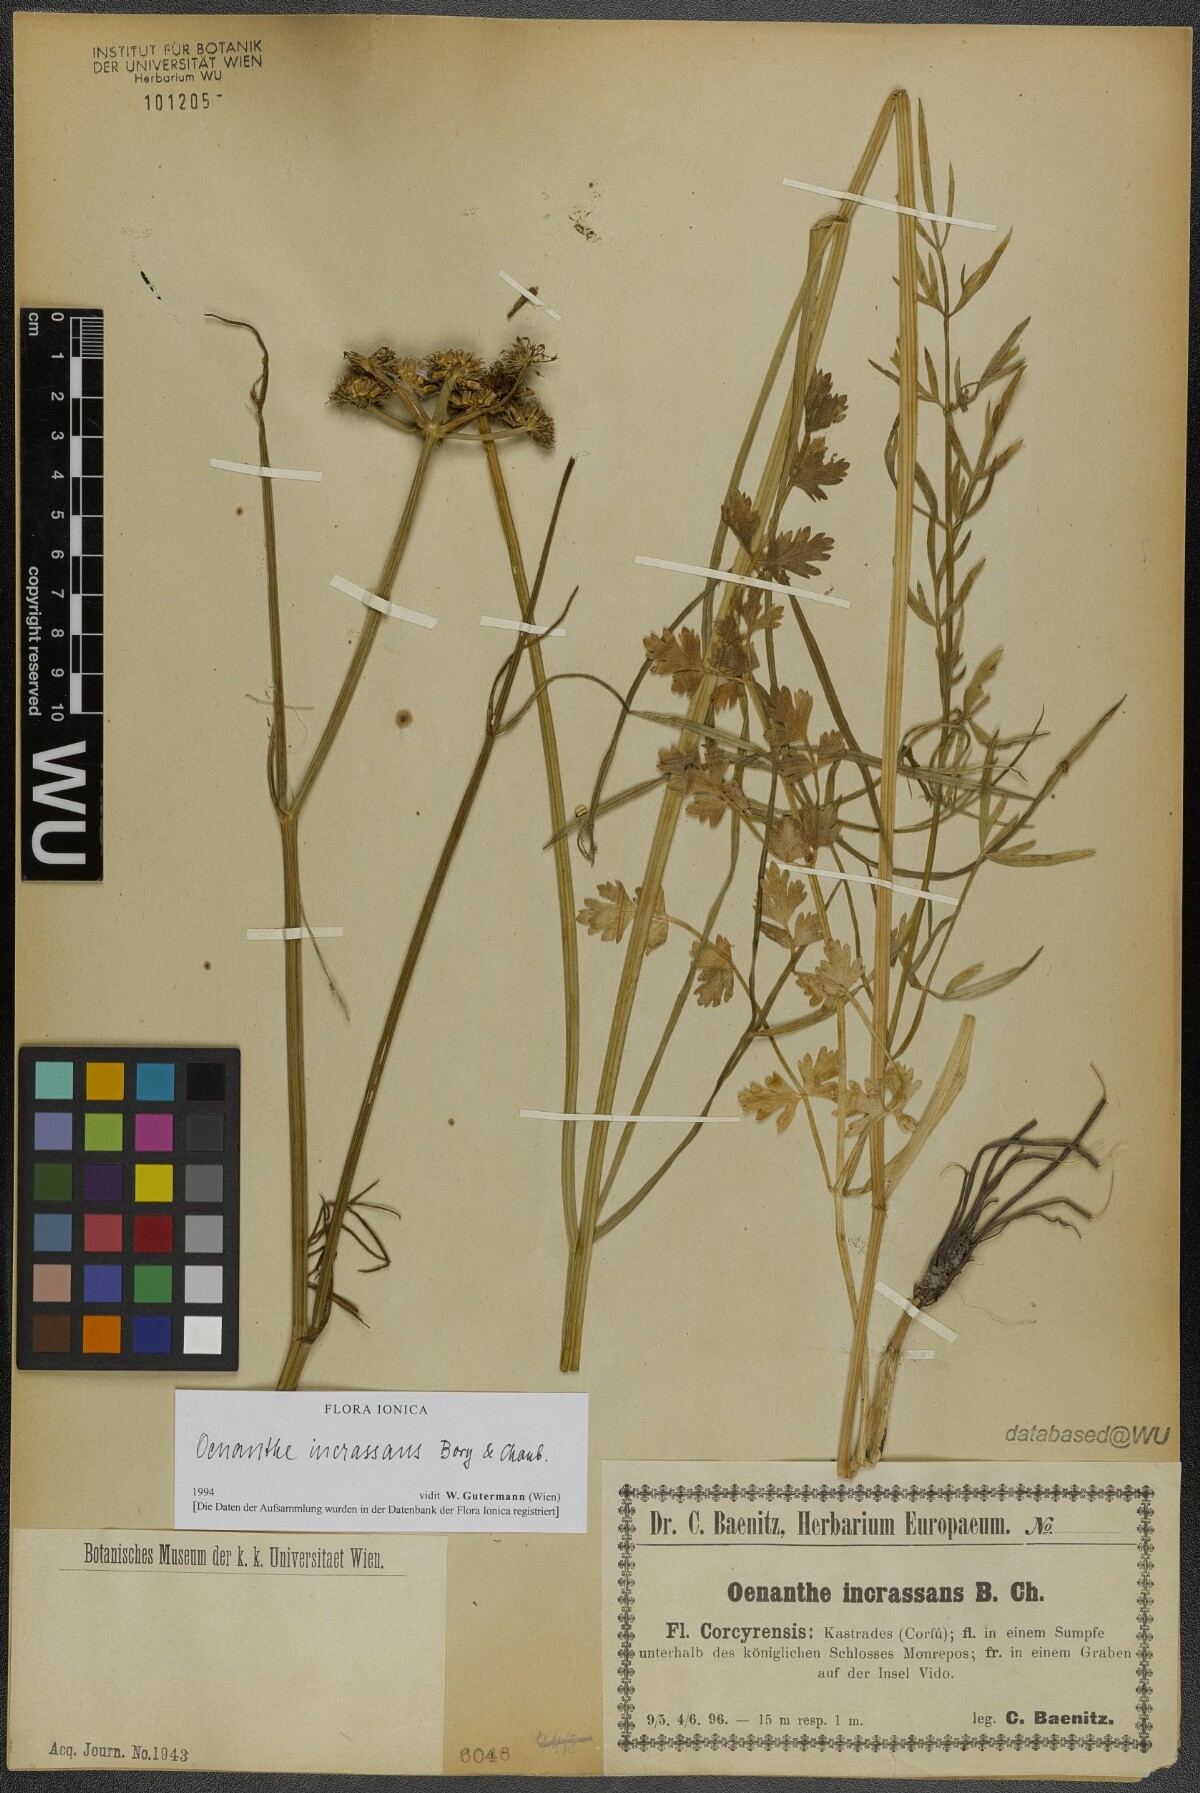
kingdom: Plantae
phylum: Tracheophyta
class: Magnoliopsida
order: Apiales
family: Apiaceae
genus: Oenanthe
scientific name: Oenanthe pimpinelloides
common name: Corky-fruited water-dropwort
